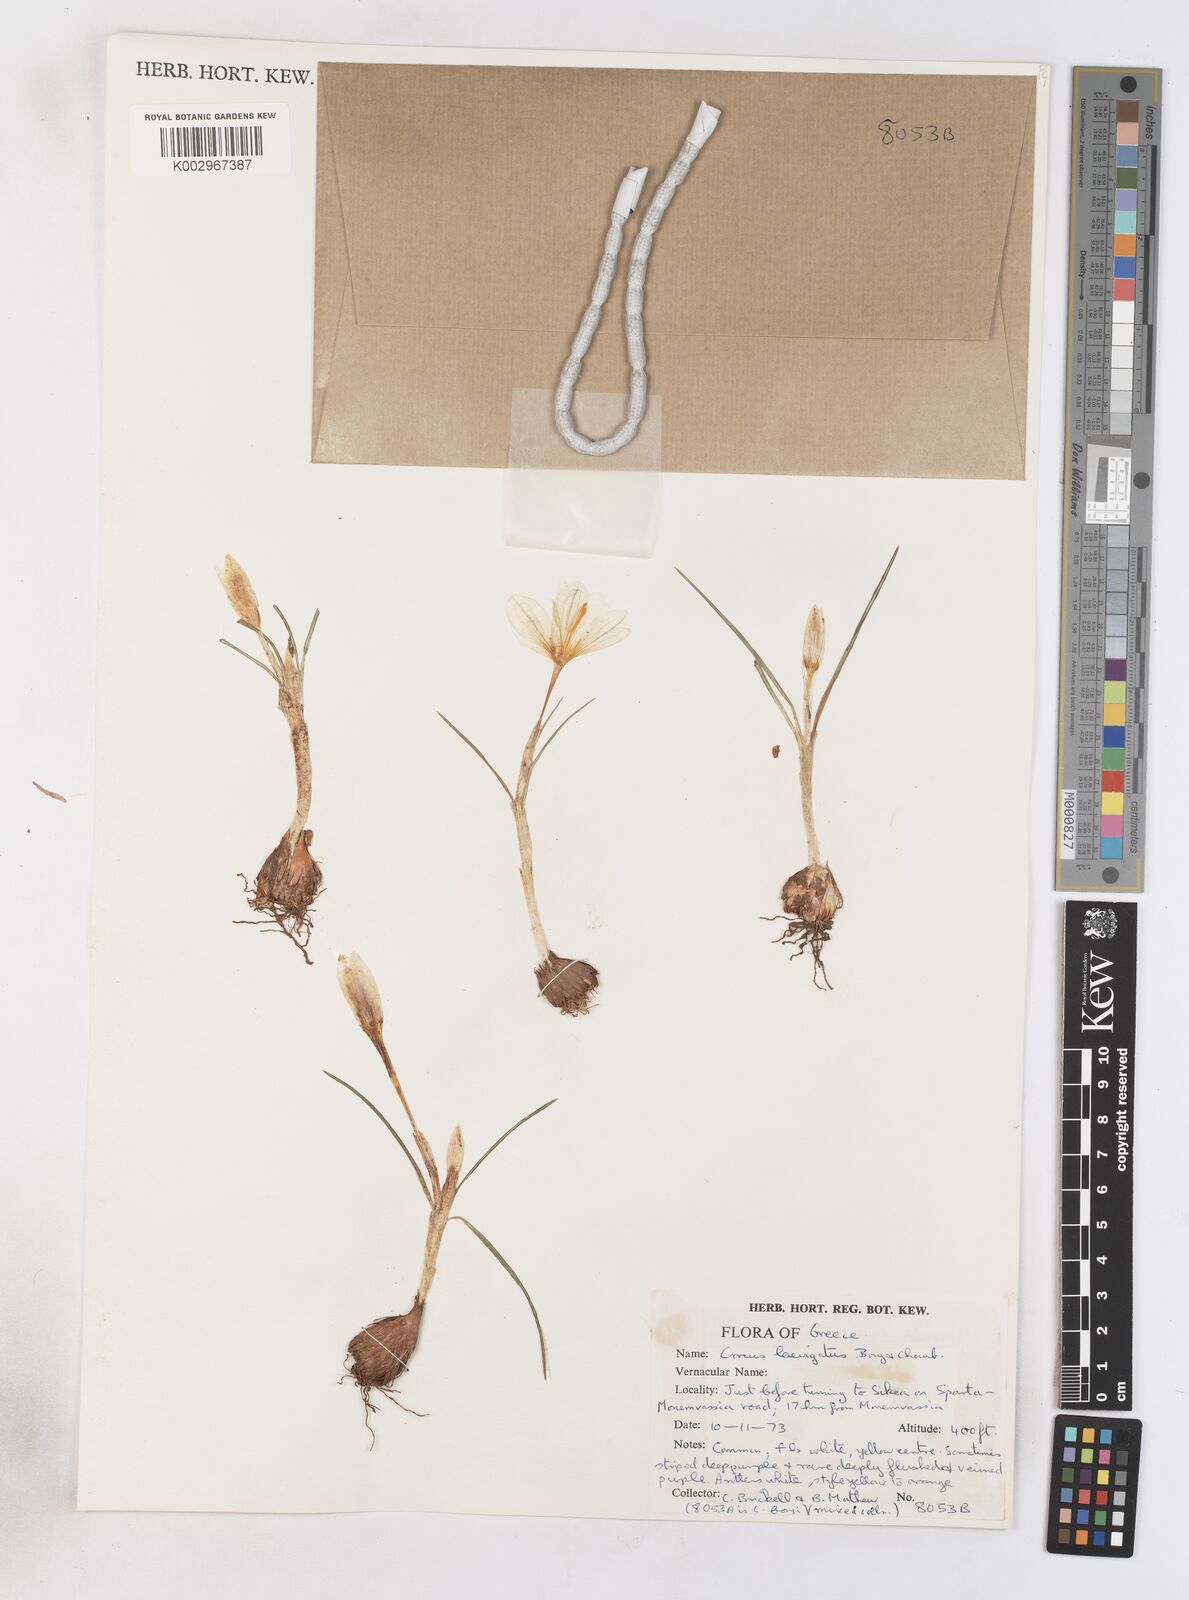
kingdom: Plantae
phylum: Tracheophyta
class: Liliopsida
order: Asparagales
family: Iridaceae
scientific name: Iridaceae
